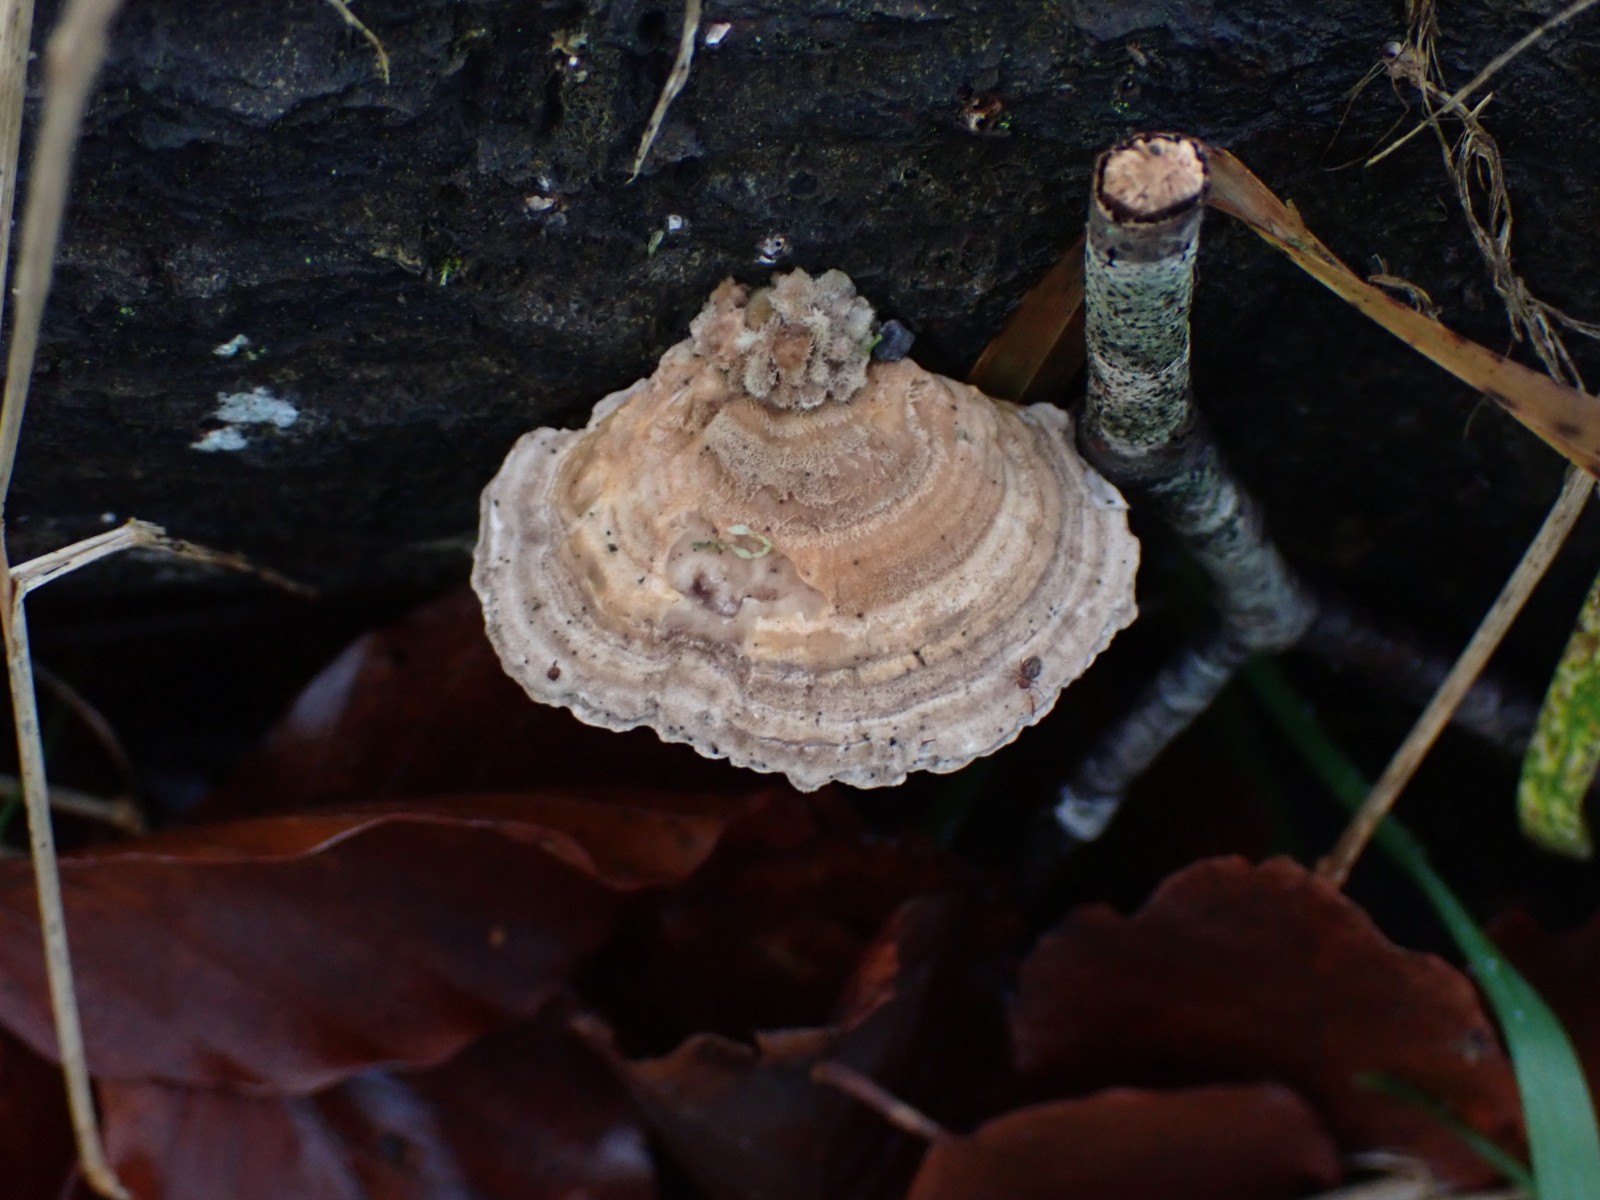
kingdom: Fungi
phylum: Basidiomycota
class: Agaricomycetes
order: Polyporales
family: Polyporaceae
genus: Lenzites
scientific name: Lenzites betulinus
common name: birke-læderporesvamp
